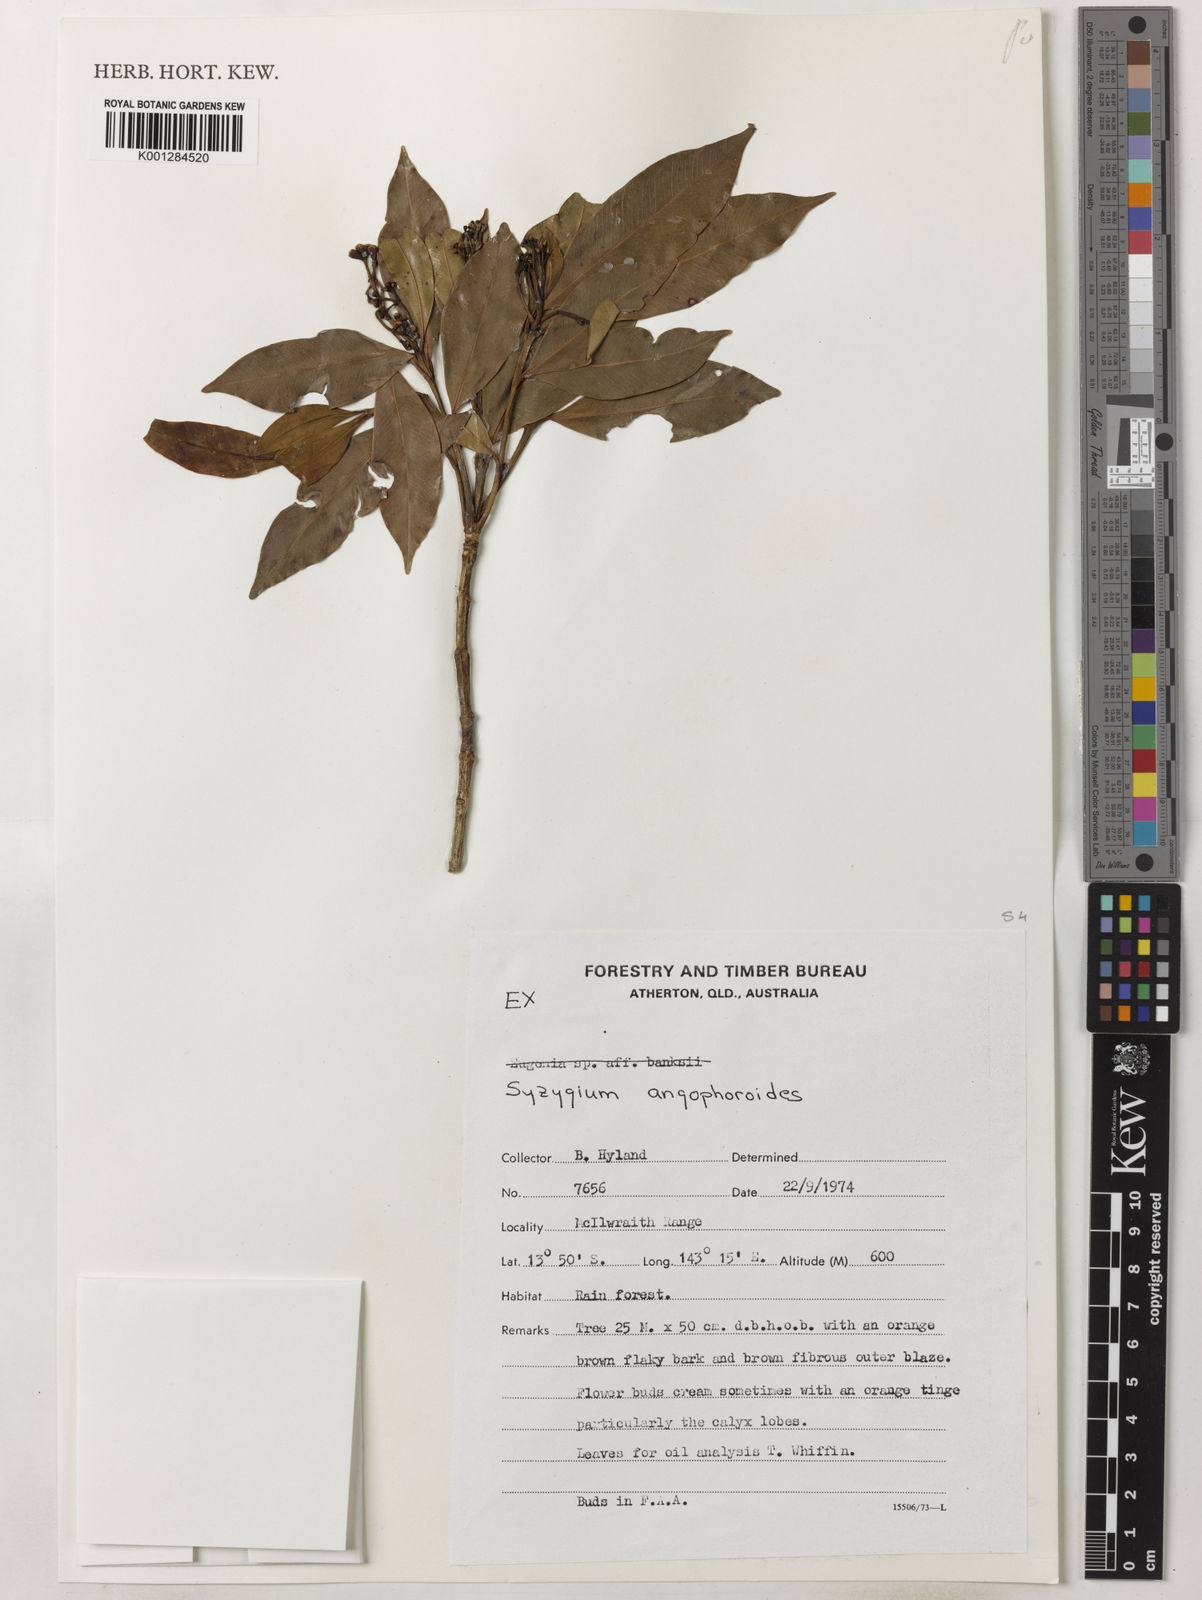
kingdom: Plantae
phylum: Tracheophyta
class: Magnoliopsida
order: Myrtales
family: Myrtaceae
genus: Syzygium
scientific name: Syzygium angophoroides
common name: Swamp satinash
